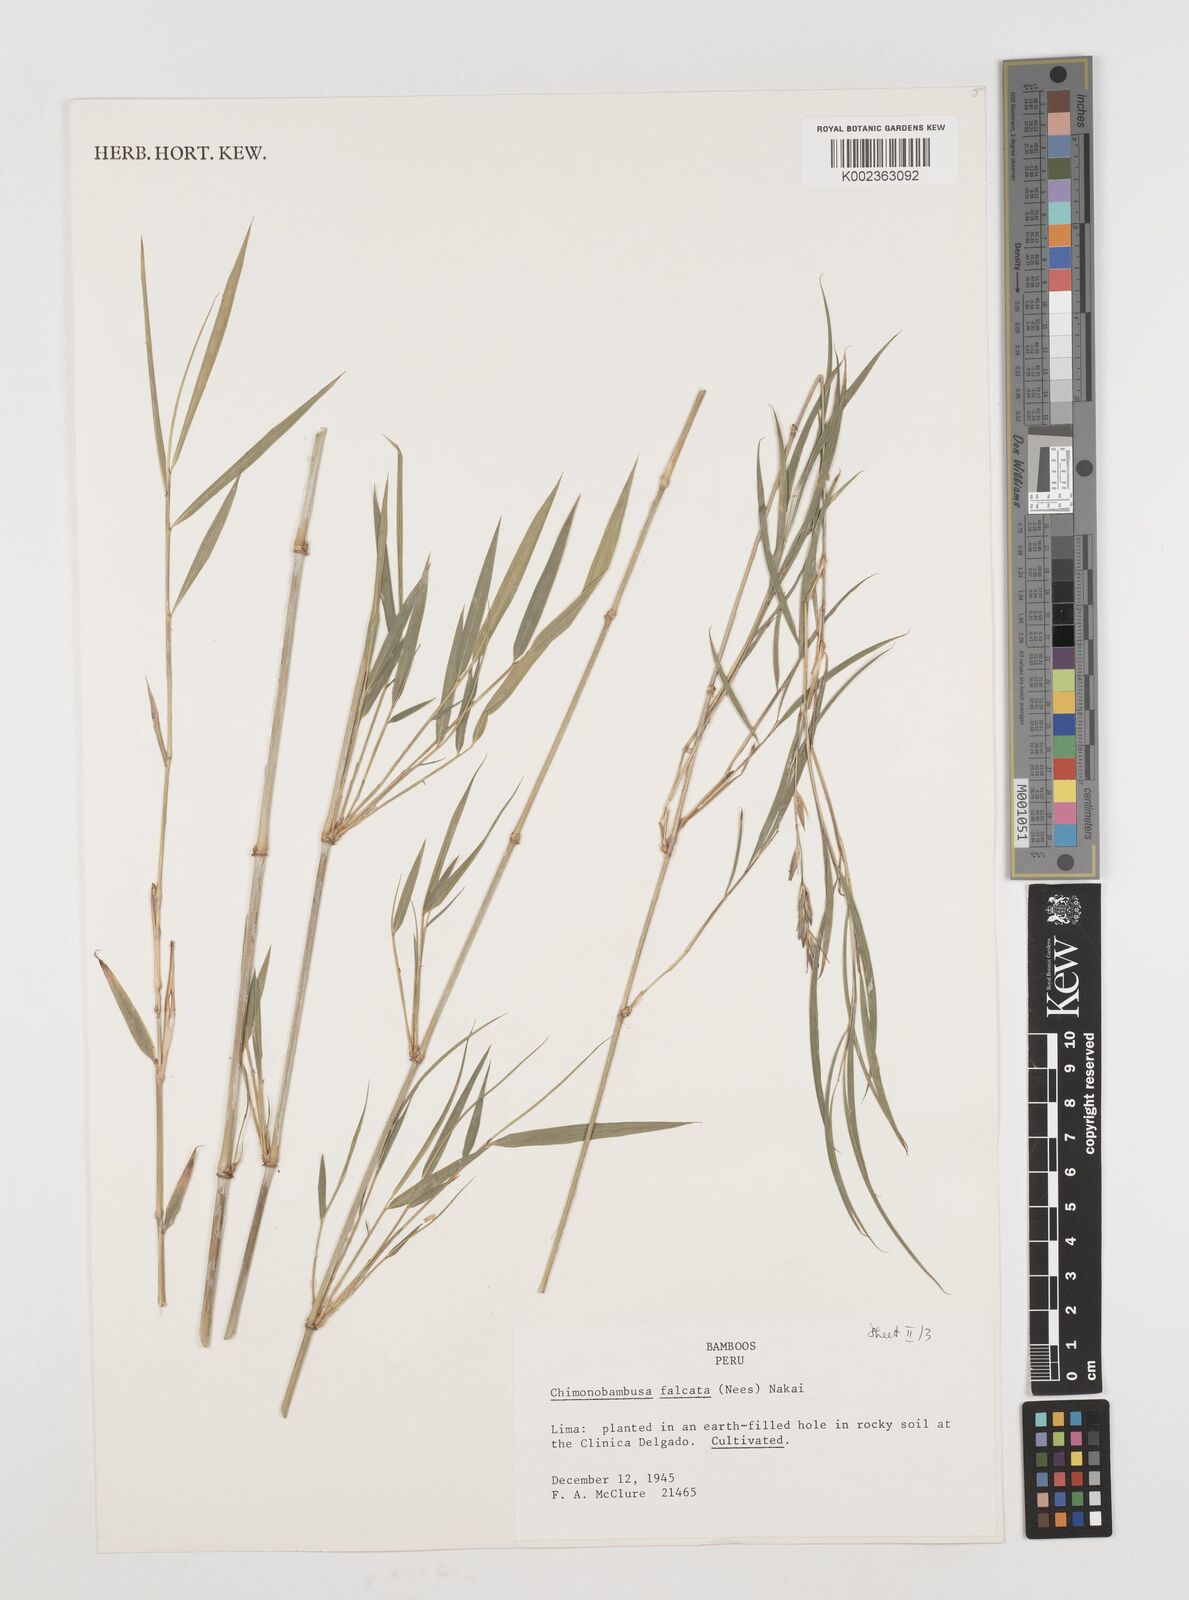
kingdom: Plantae
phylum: Tracheophyta
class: Liliopsida
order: Poales
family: Poaceae
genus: Drepanostachyum
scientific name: Drepanostachyum
